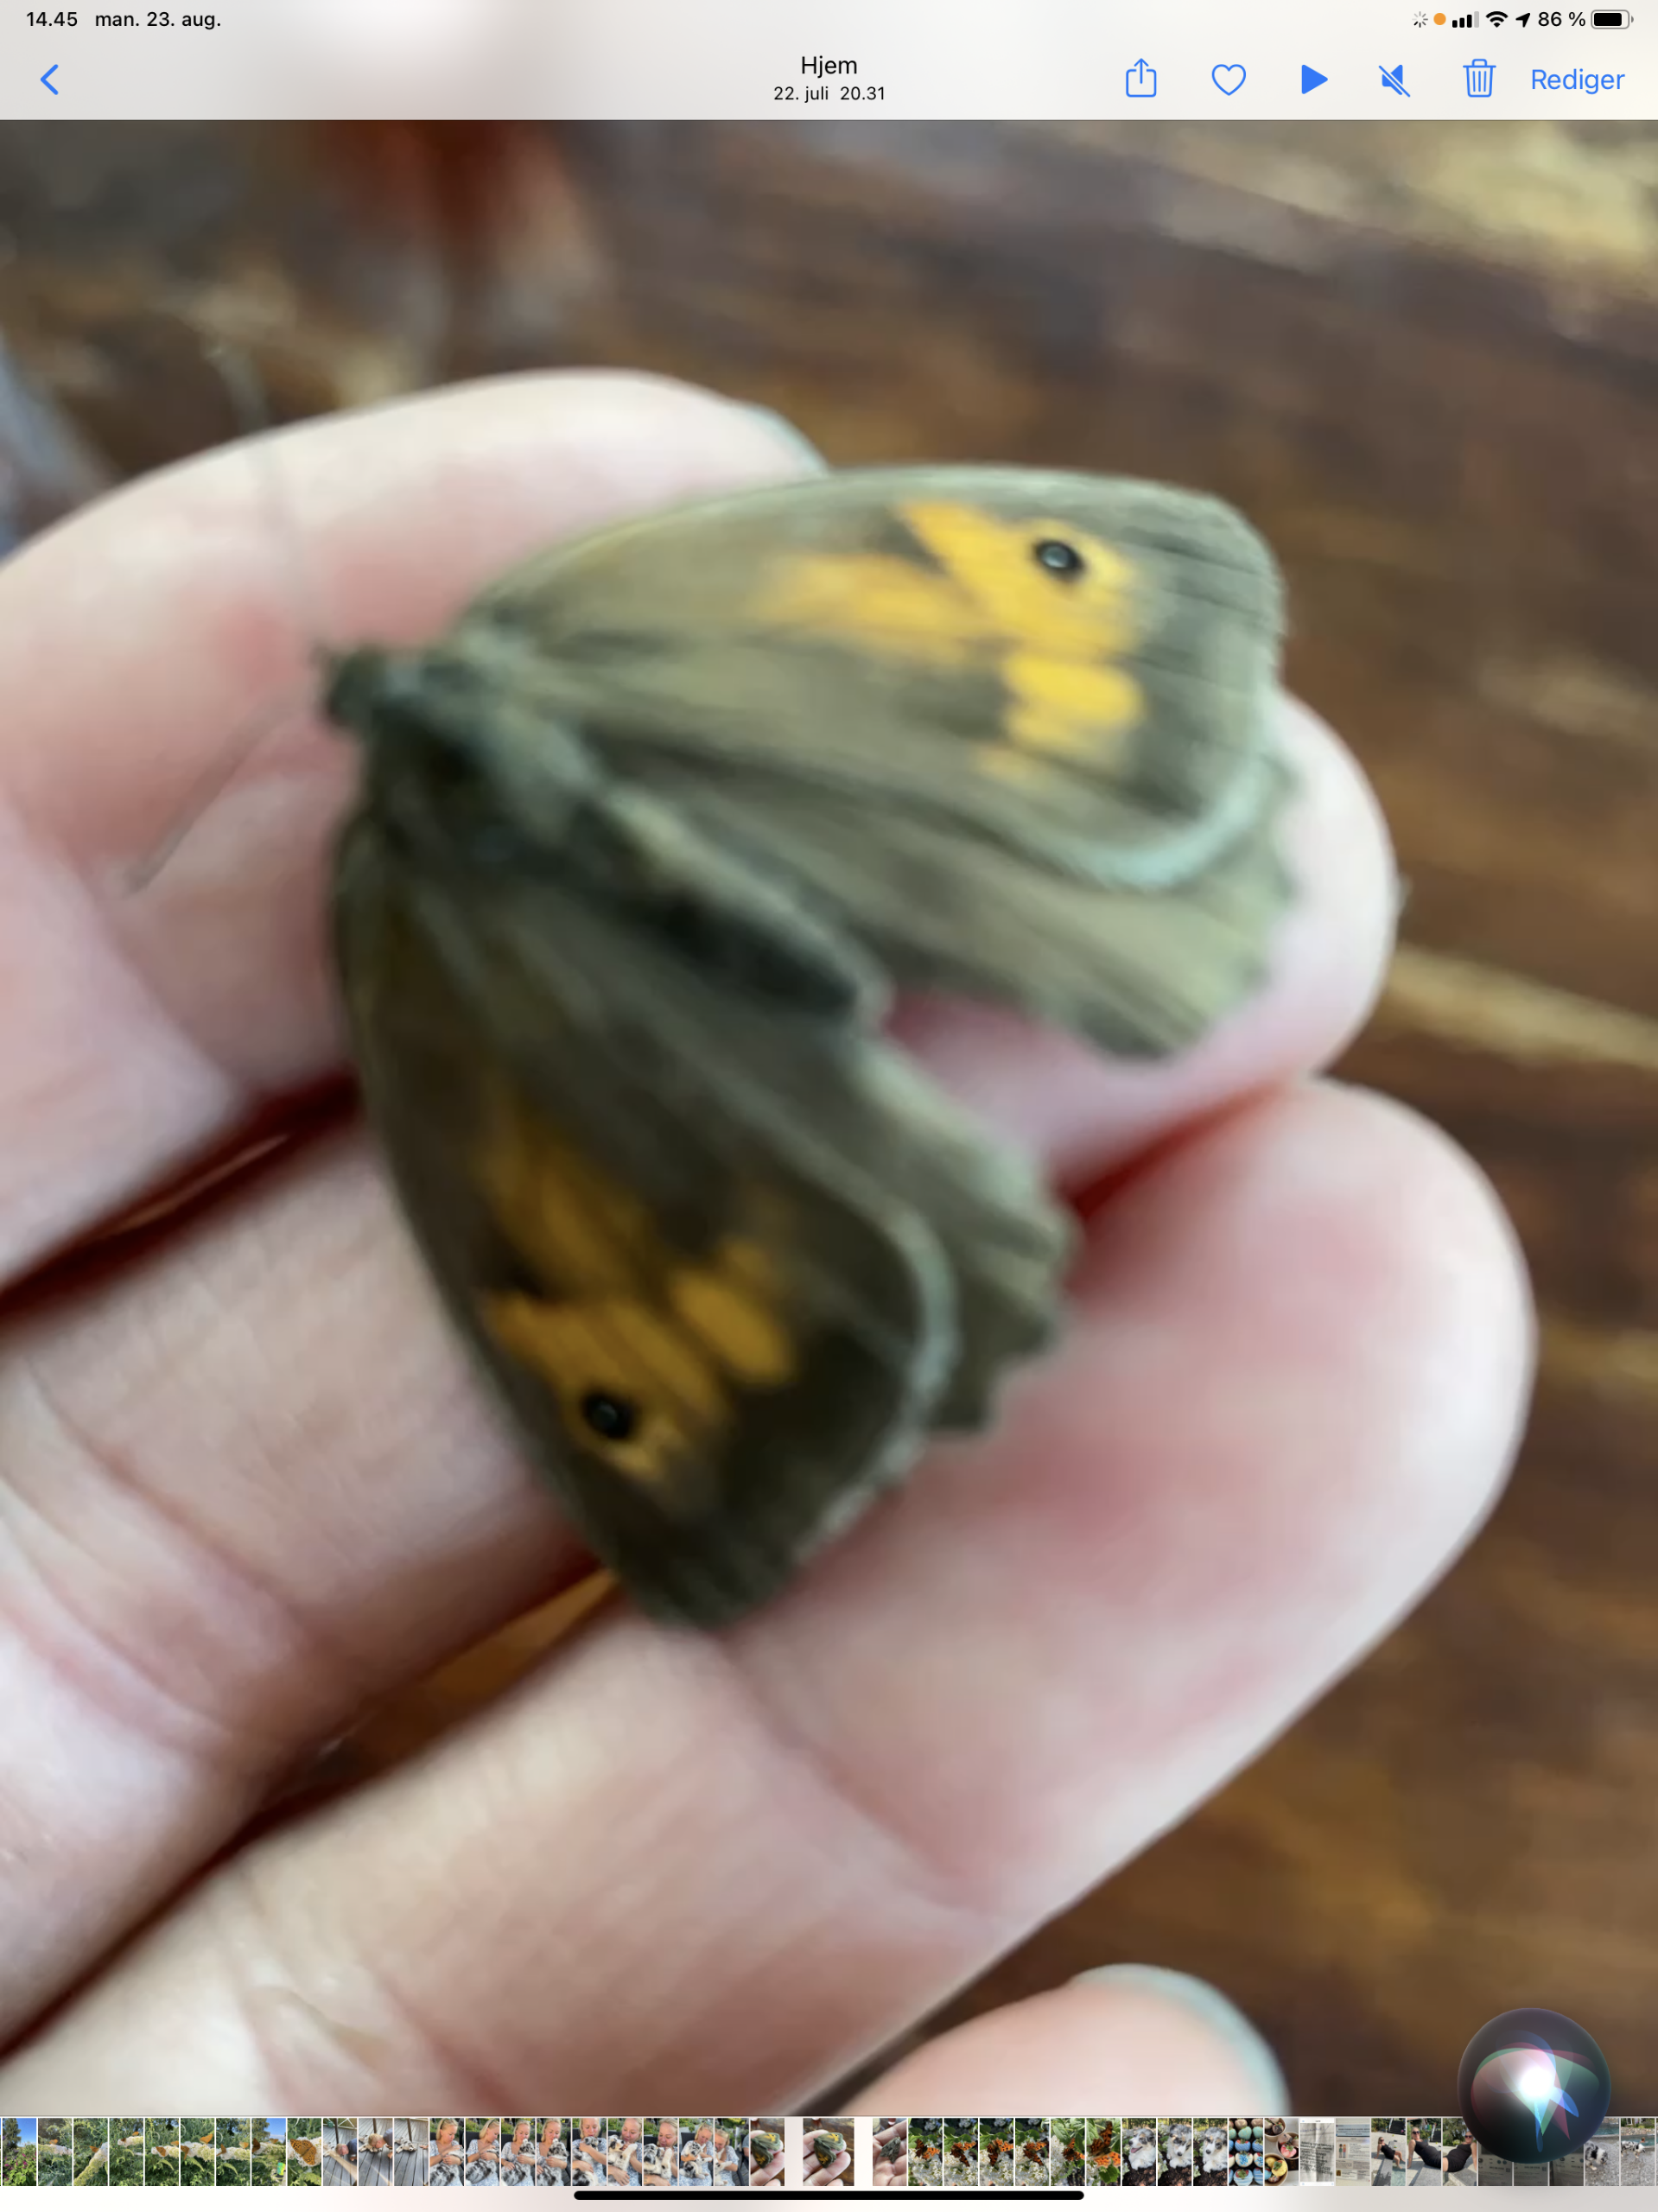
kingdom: Animalia
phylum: Arthropoda
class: Insecta
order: Lepidoptera
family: Nymphalidae
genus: Maniola
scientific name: Maniola jurtina
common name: Græsrandøje
